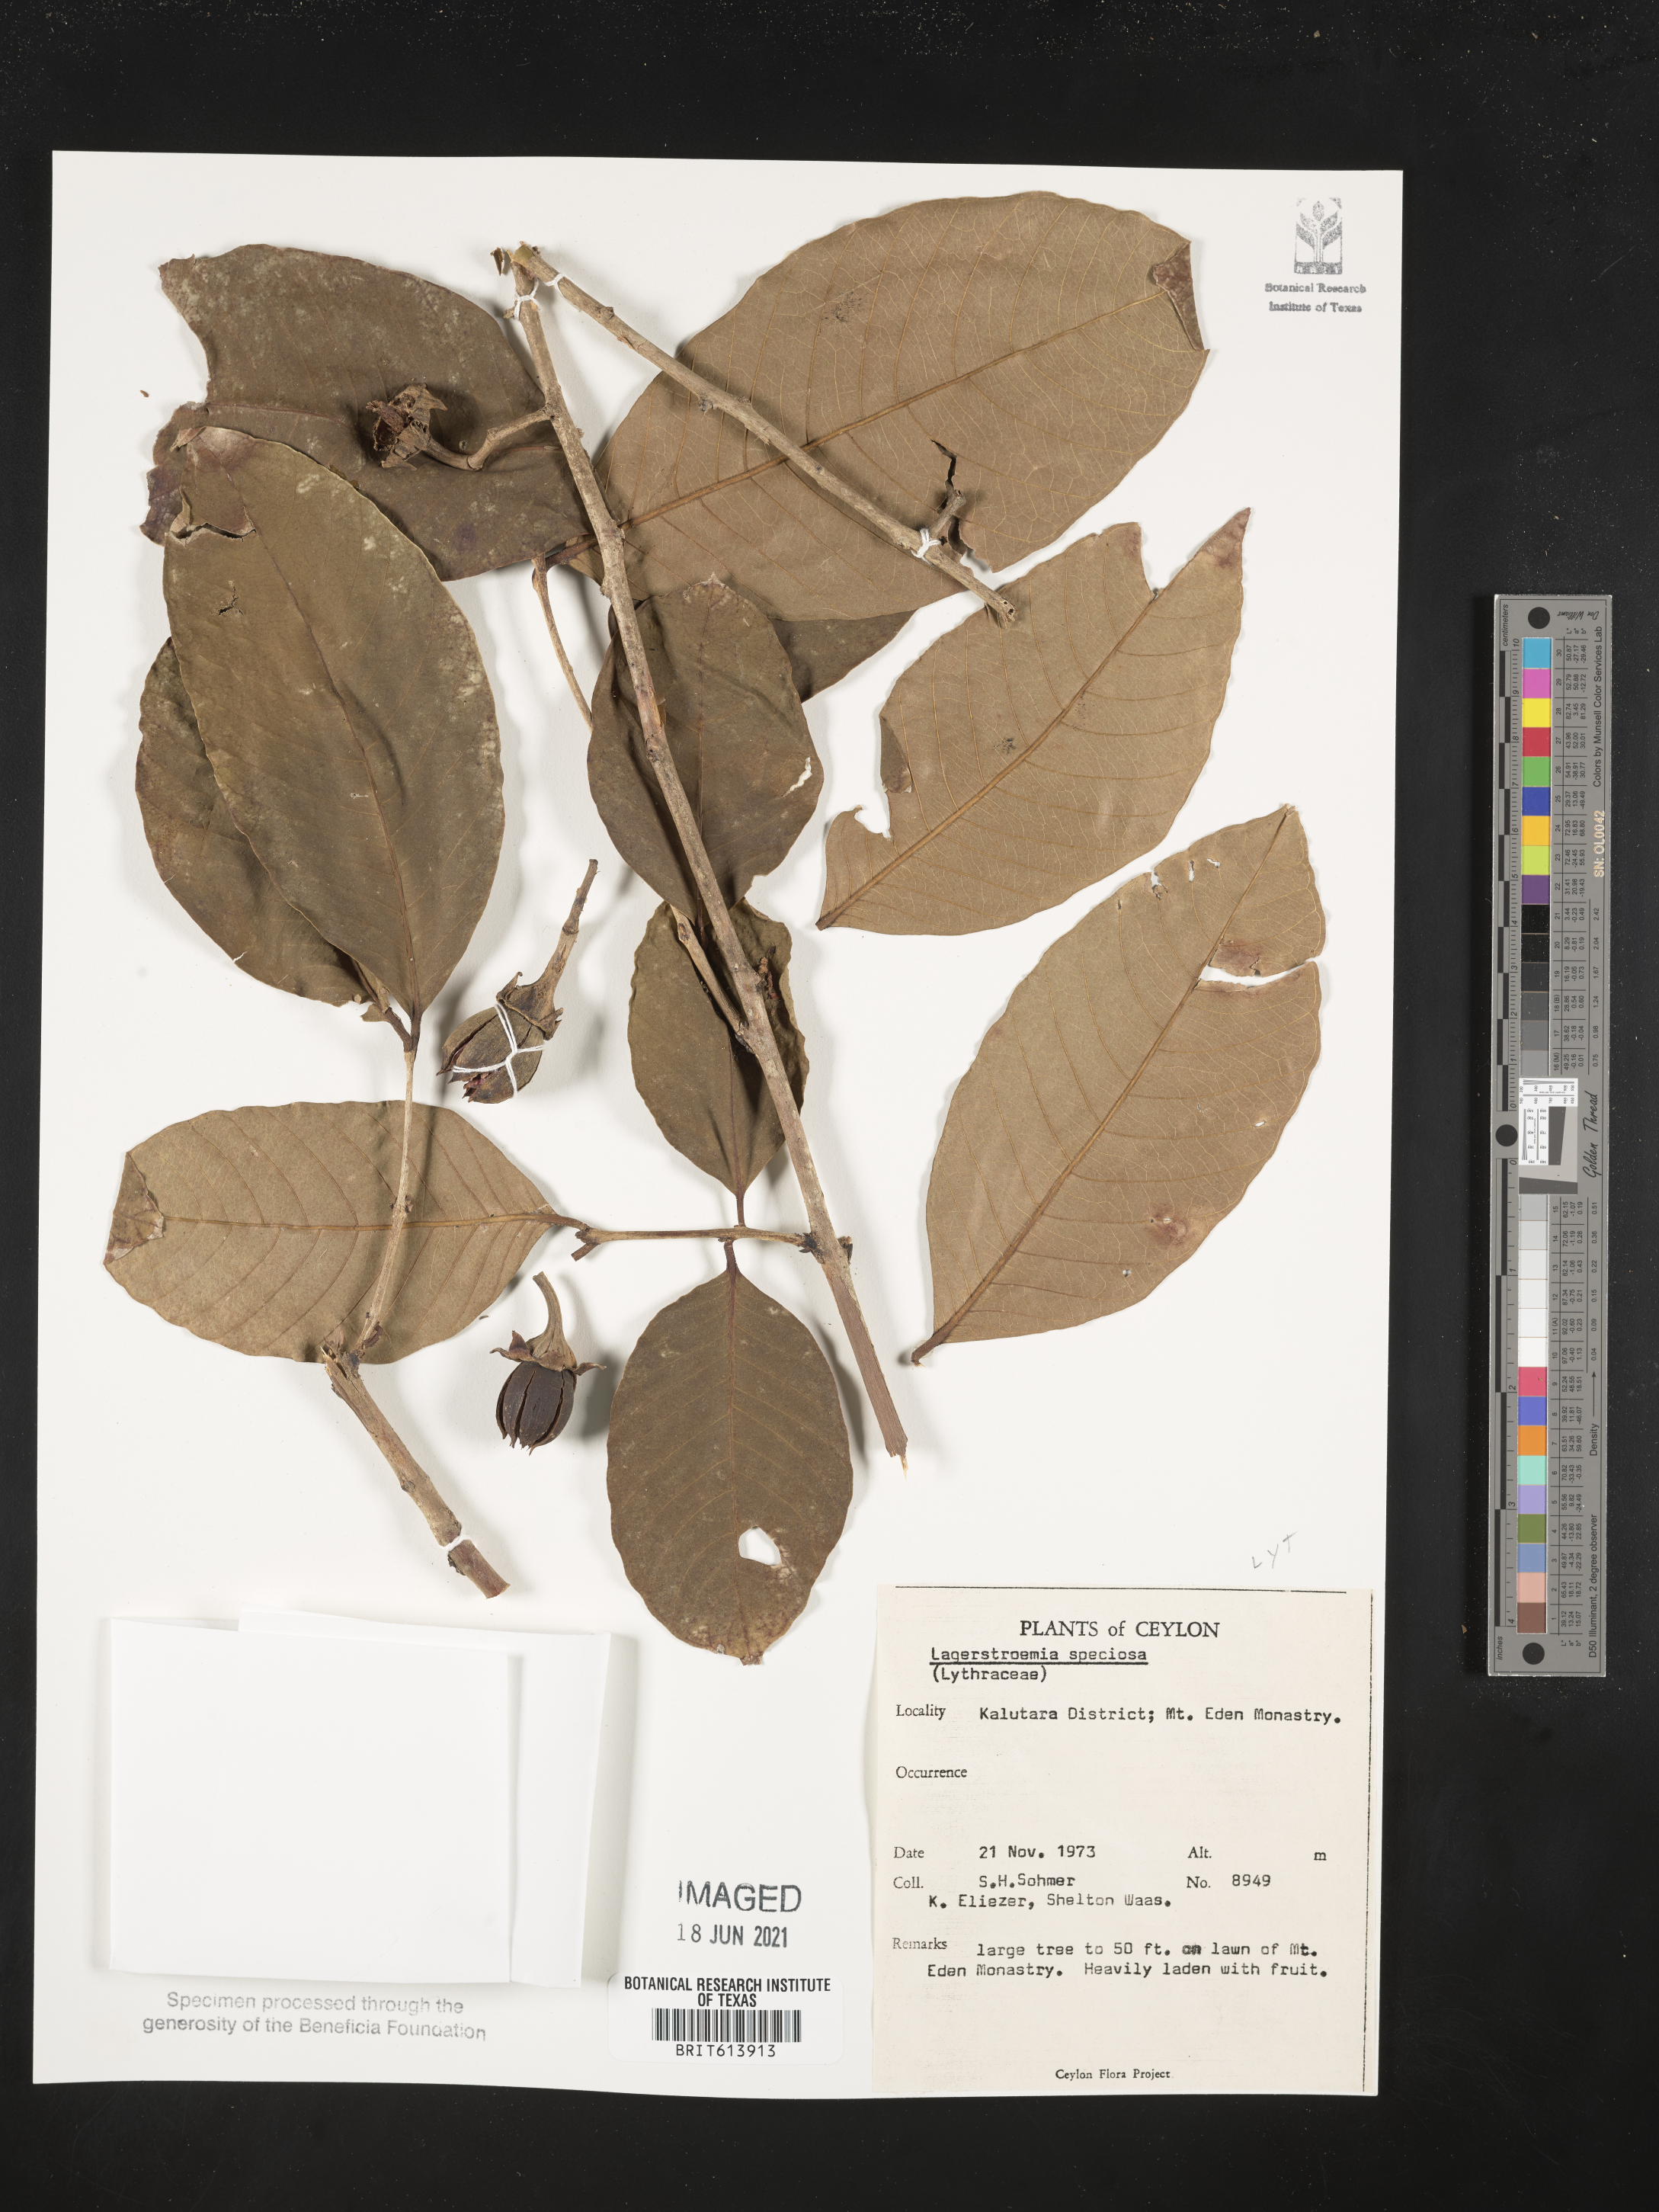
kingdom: Plantae
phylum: Tracheophyta
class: Magnoliopsida
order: Myrtales
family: Lythraceae
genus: Lagerstroemia
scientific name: Lagerstroemia speciosa
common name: Queen's crape-myrtle
